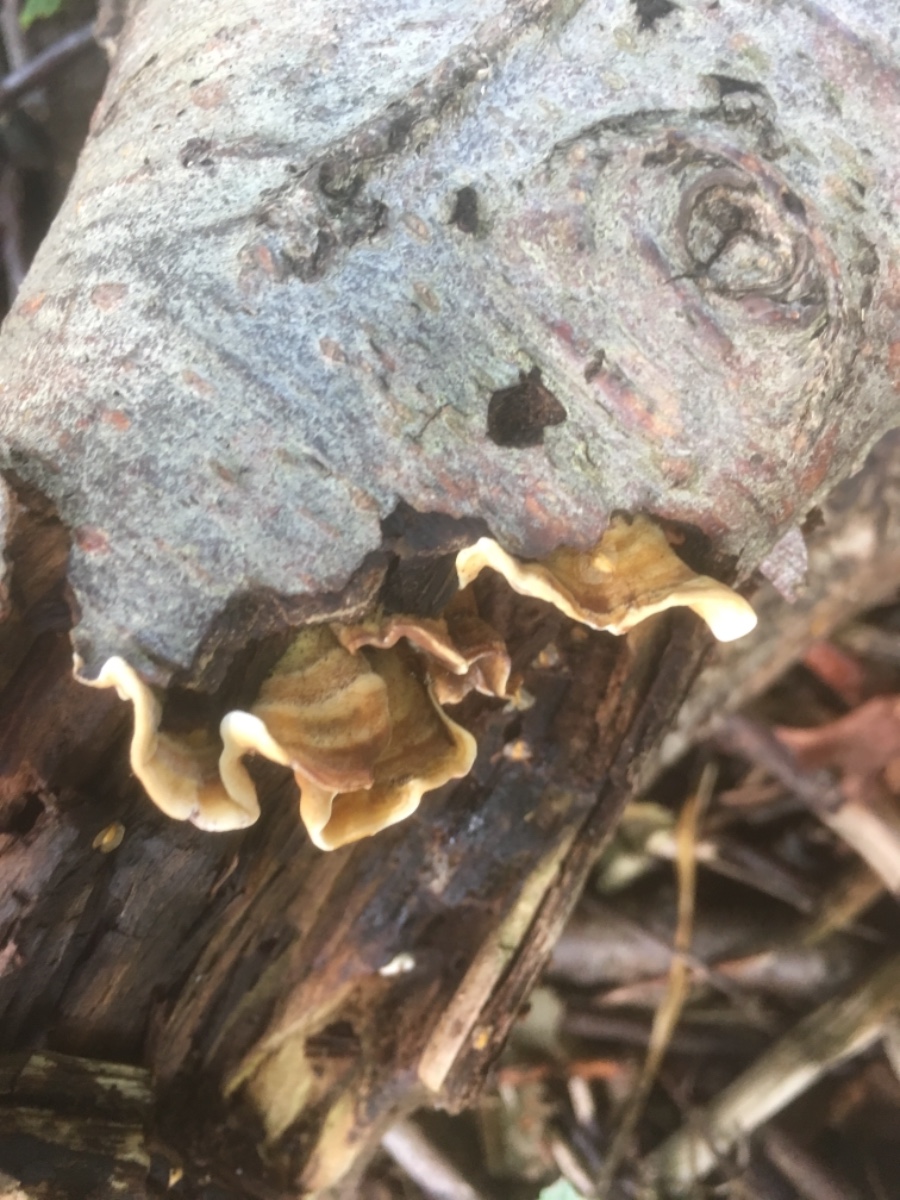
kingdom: Fungi
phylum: Basidiomycota
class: Agaricomycetes
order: Russulales
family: Stereaceae
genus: Stereum
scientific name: Stereum hirsutum
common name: håret lædersvamp
